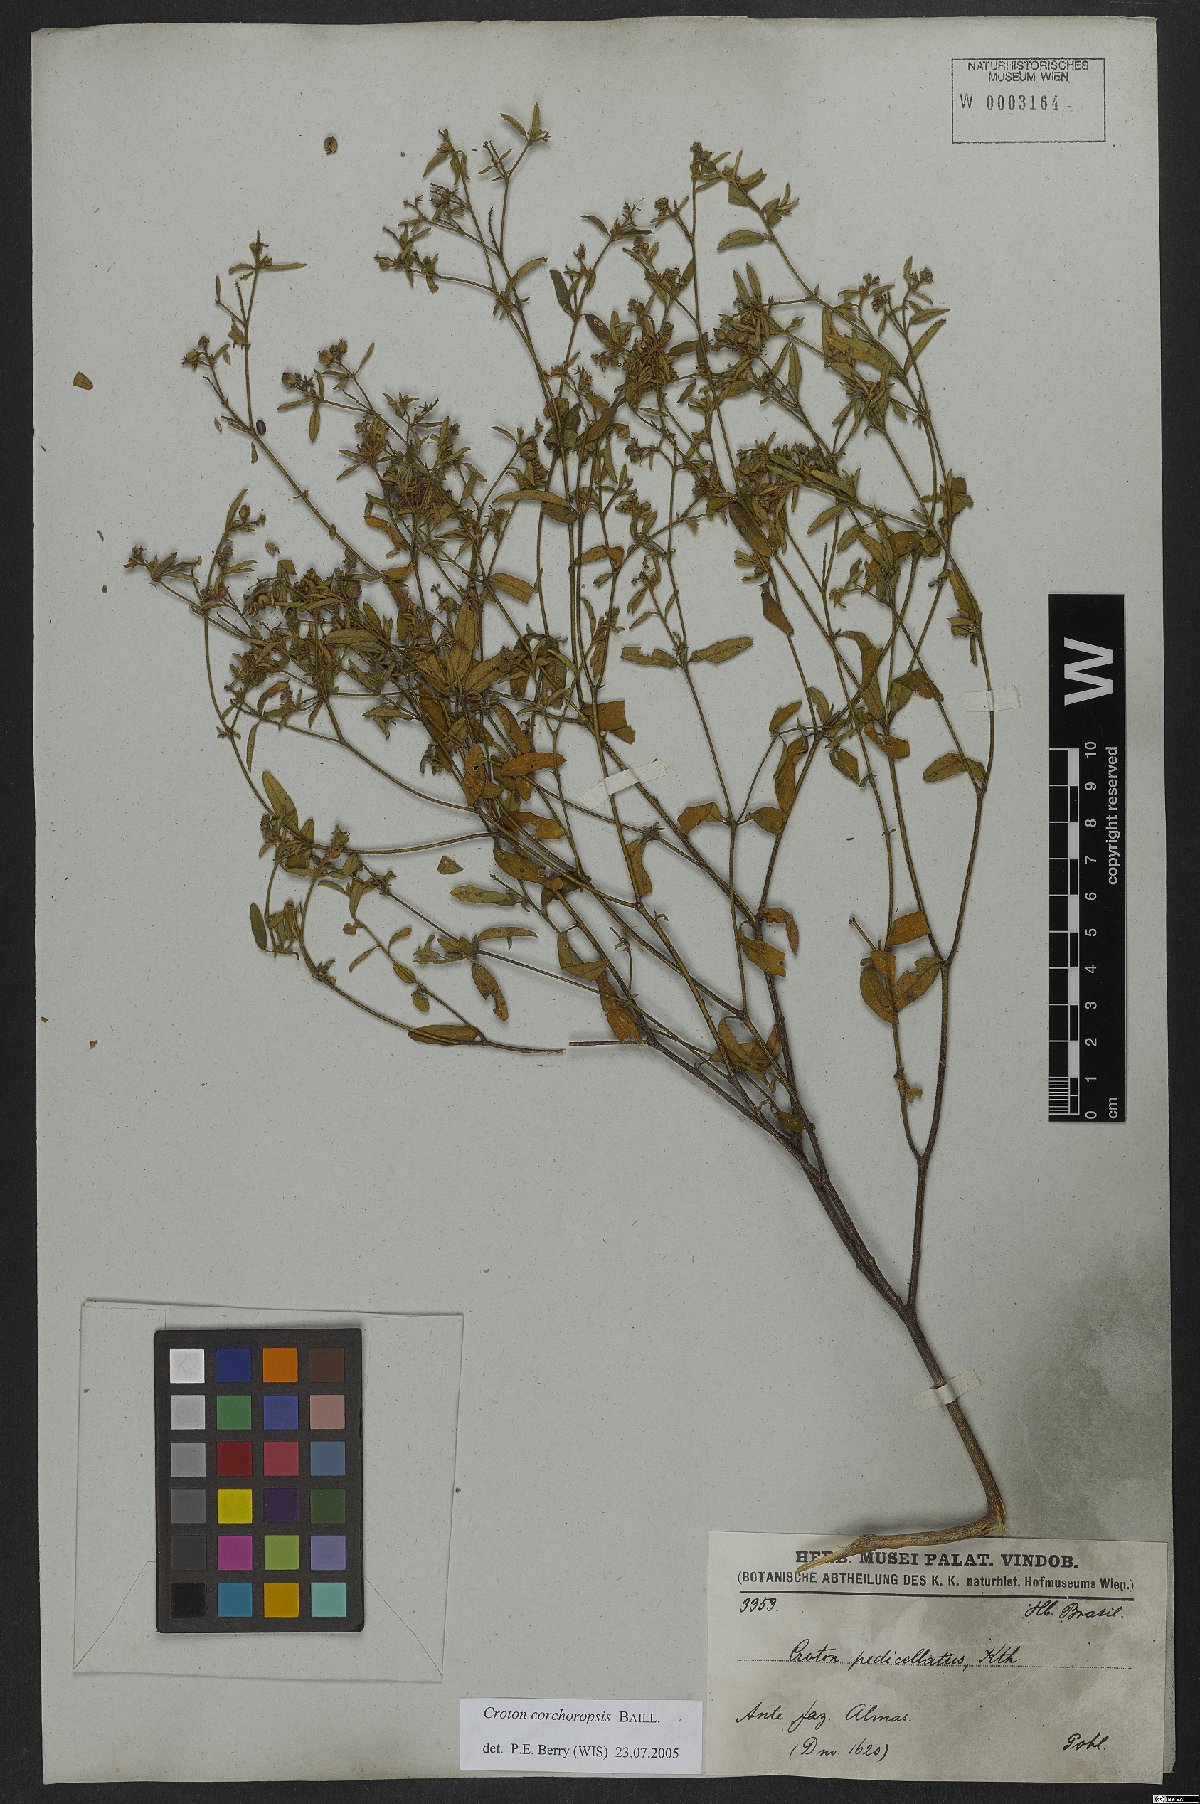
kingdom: Plantae
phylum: Tracheophyta
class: Magnoliopsida
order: Malpighiales
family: Euphorbiaceae
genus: Croton
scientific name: Croton corchoropsis
